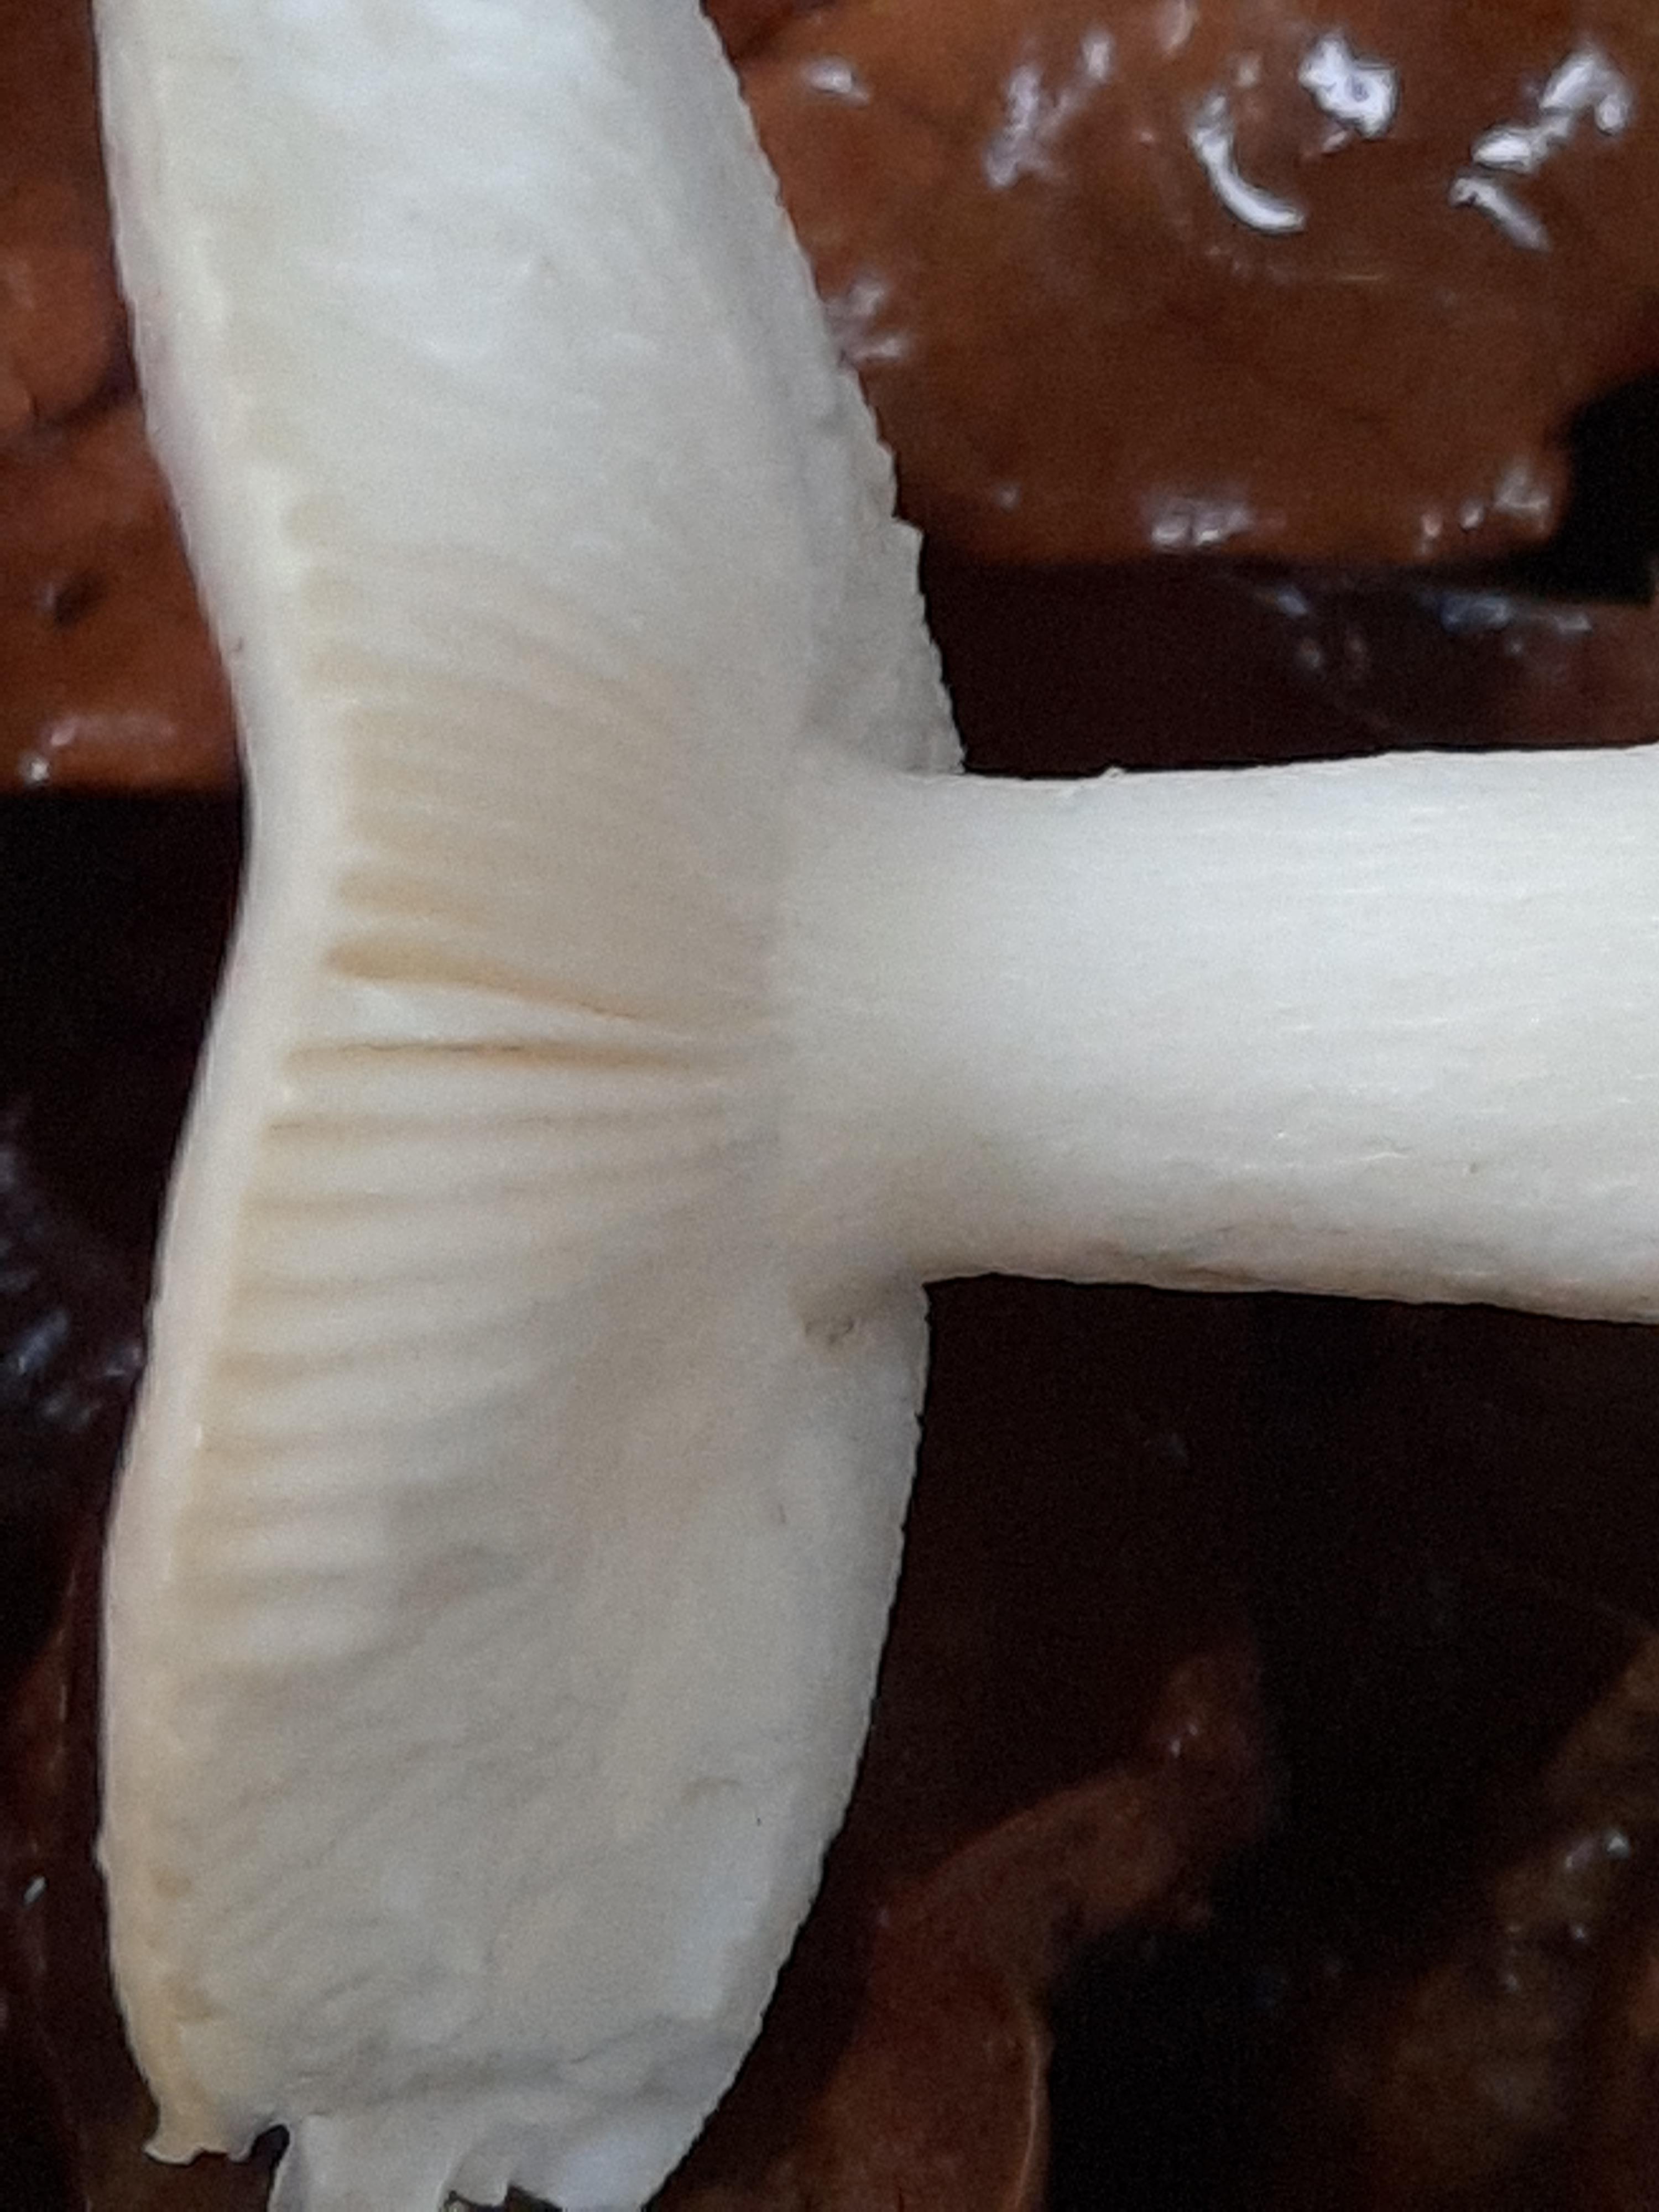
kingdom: Fungi
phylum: Basidiomycota
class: Agaricomycetes
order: Russulales
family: Russulaceae
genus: Russula
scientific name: Russula fragilis
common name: Fragile brittlegill
